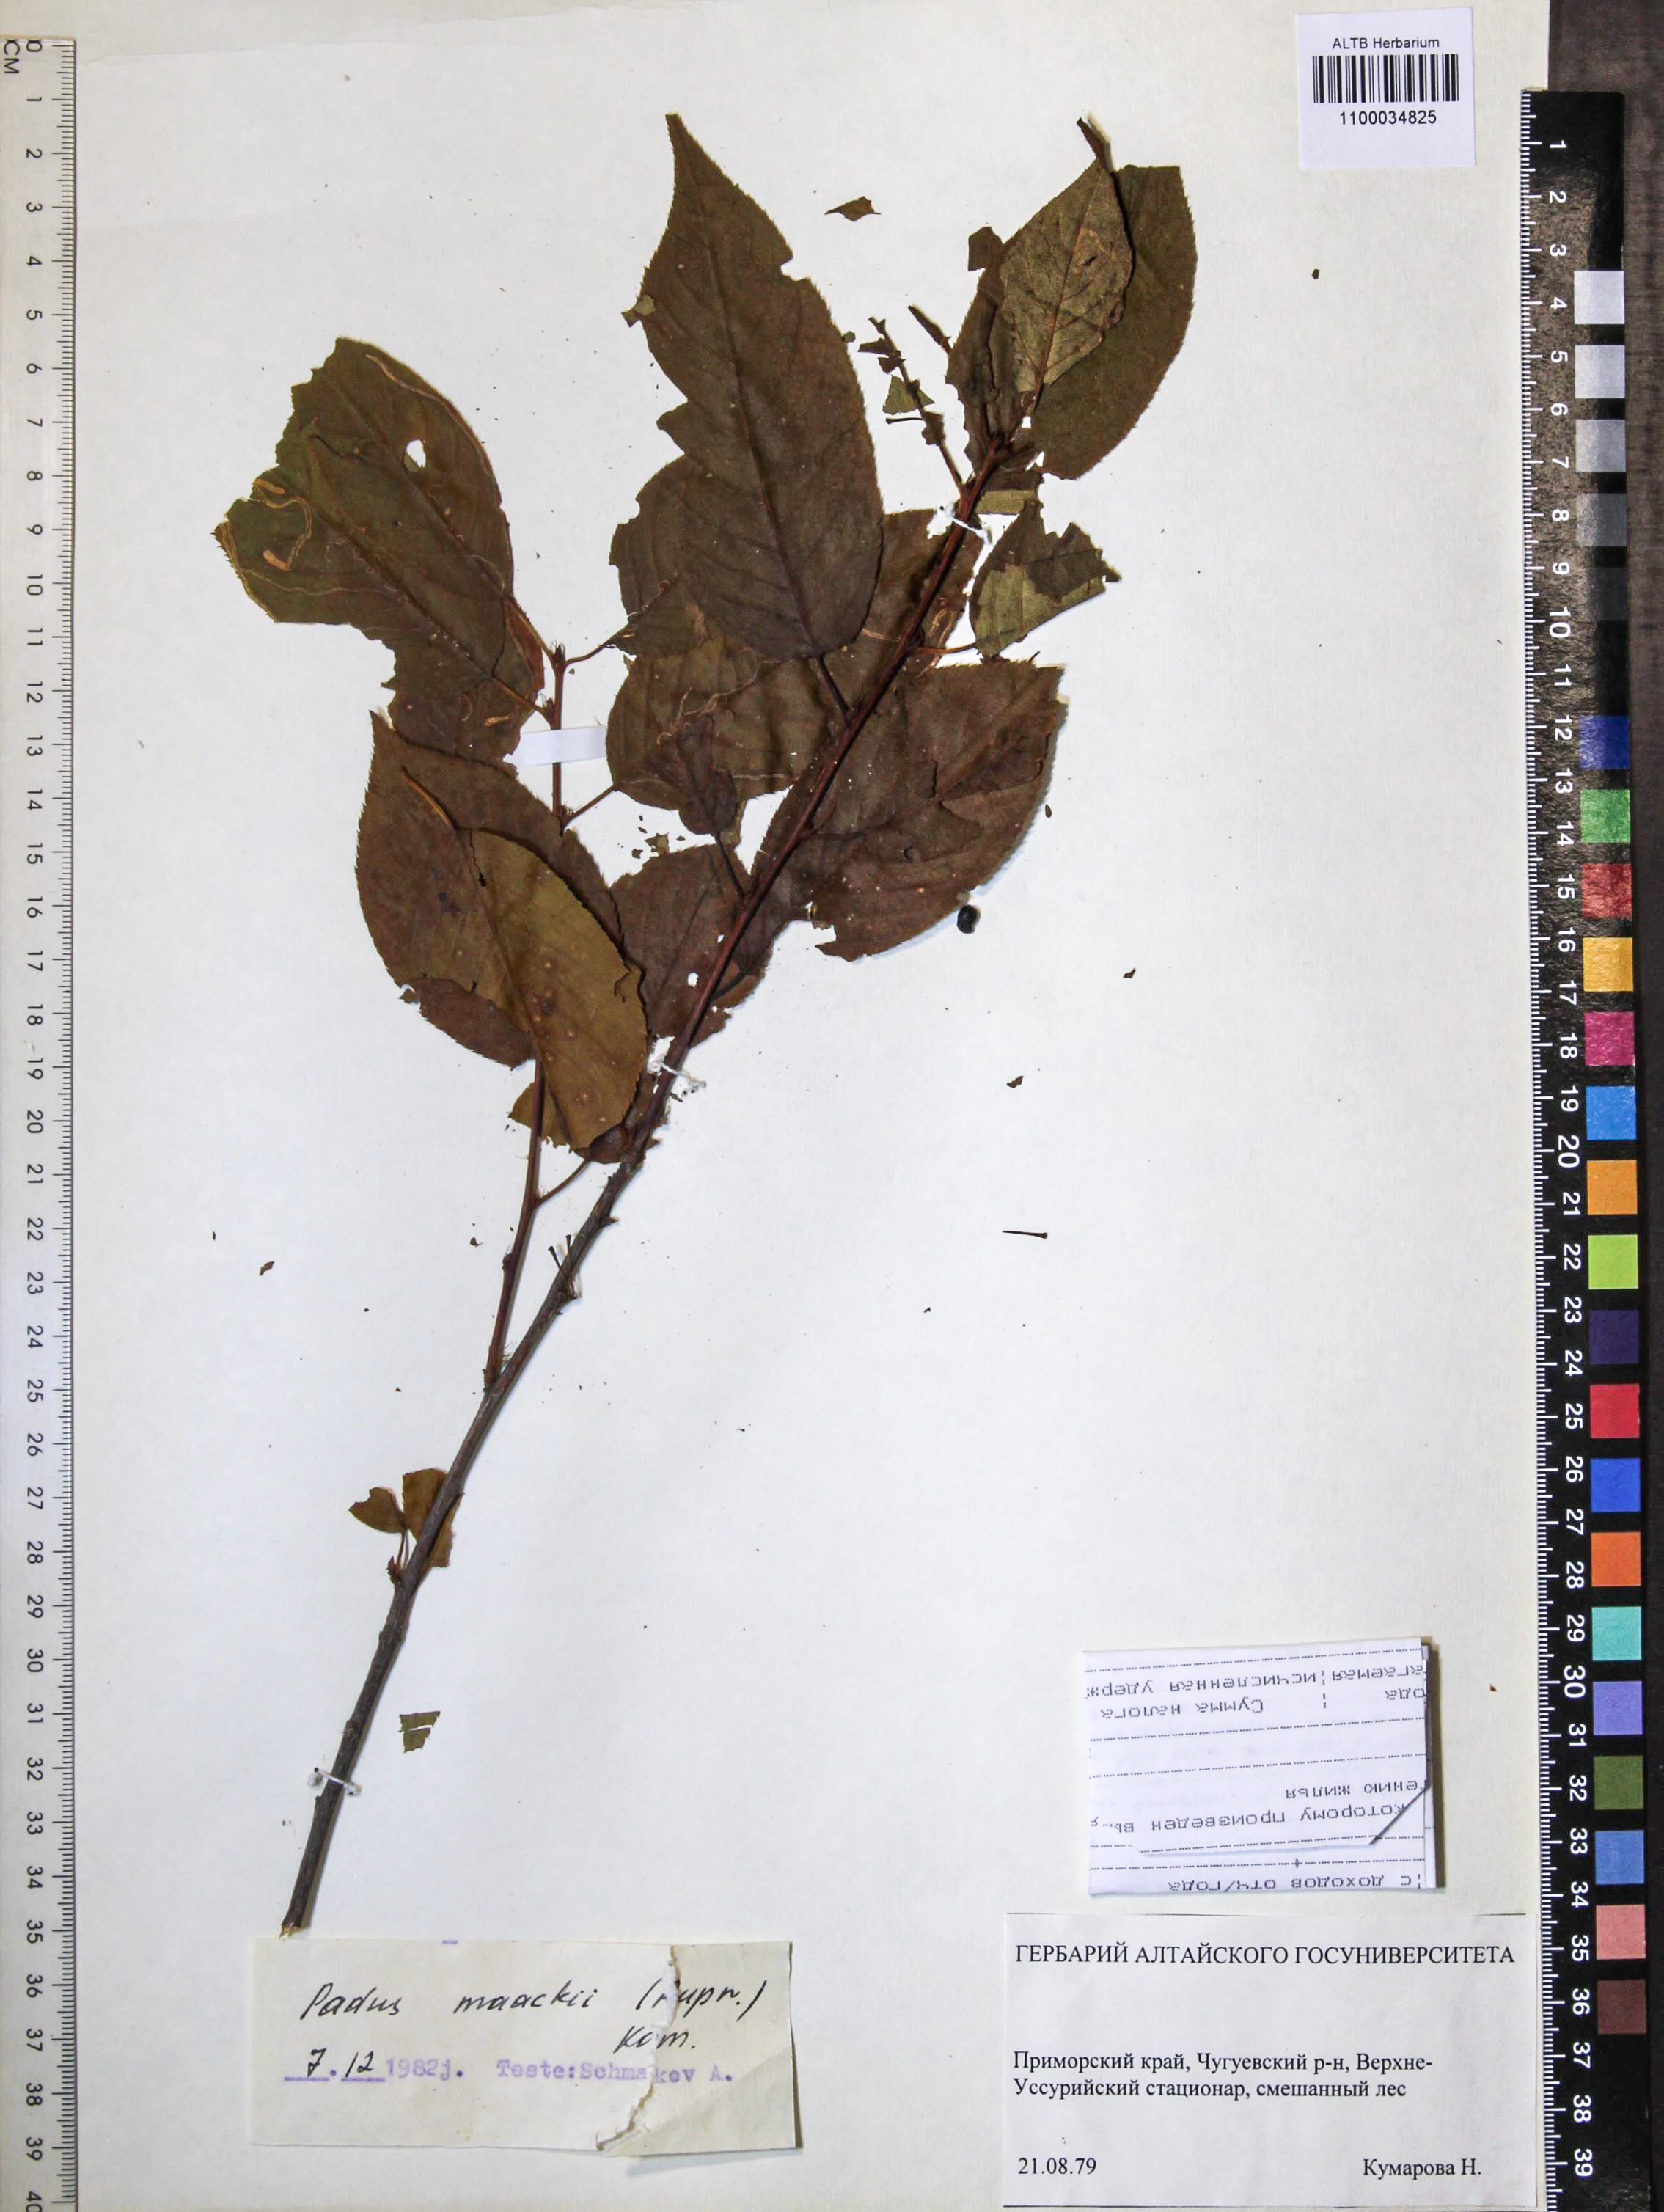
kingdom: Plantae
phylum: Tracheophyta
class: Magnoliopsida
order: Rosales
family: Rosaceae
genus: Prunus
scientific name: Prunus glandulifolia
